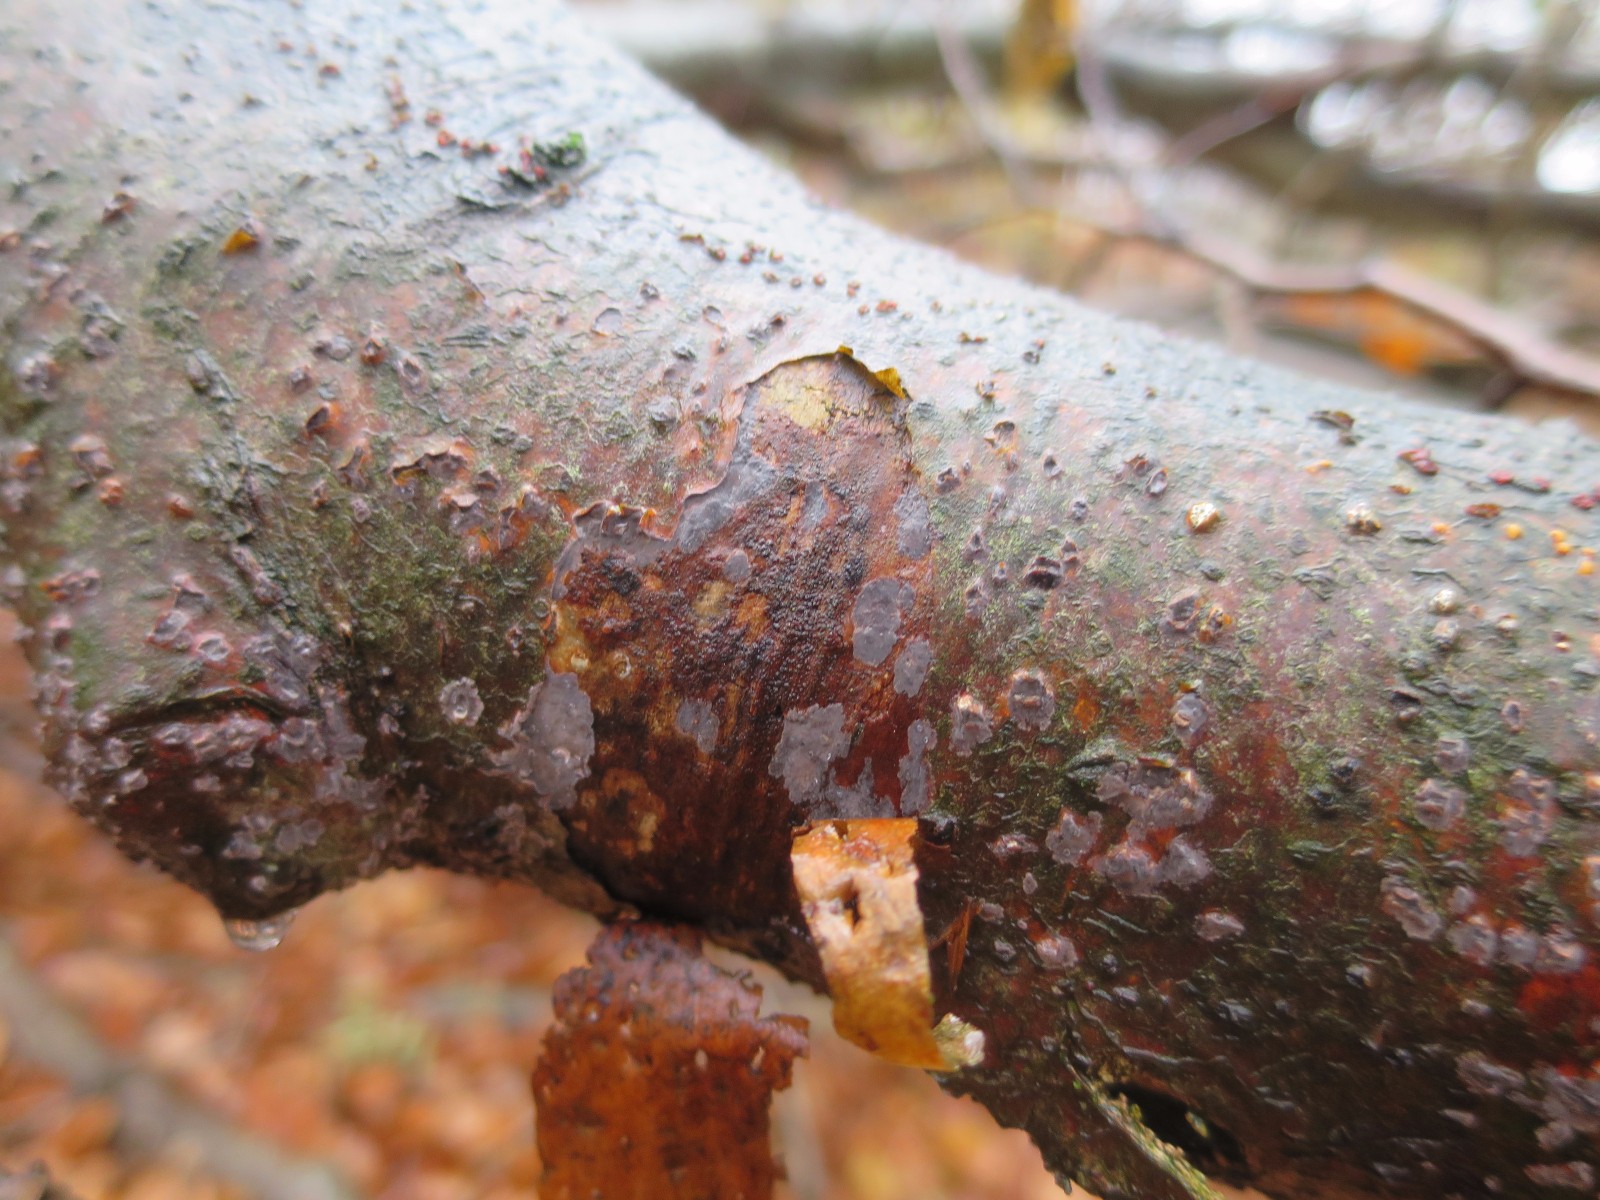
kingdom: Fungi
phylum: Basidiomycota
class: Agaricomycetes
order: Russulales
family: Peniophoraceae
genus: Peniophora
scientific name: Peniophora cinerea
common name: grå voksskind
